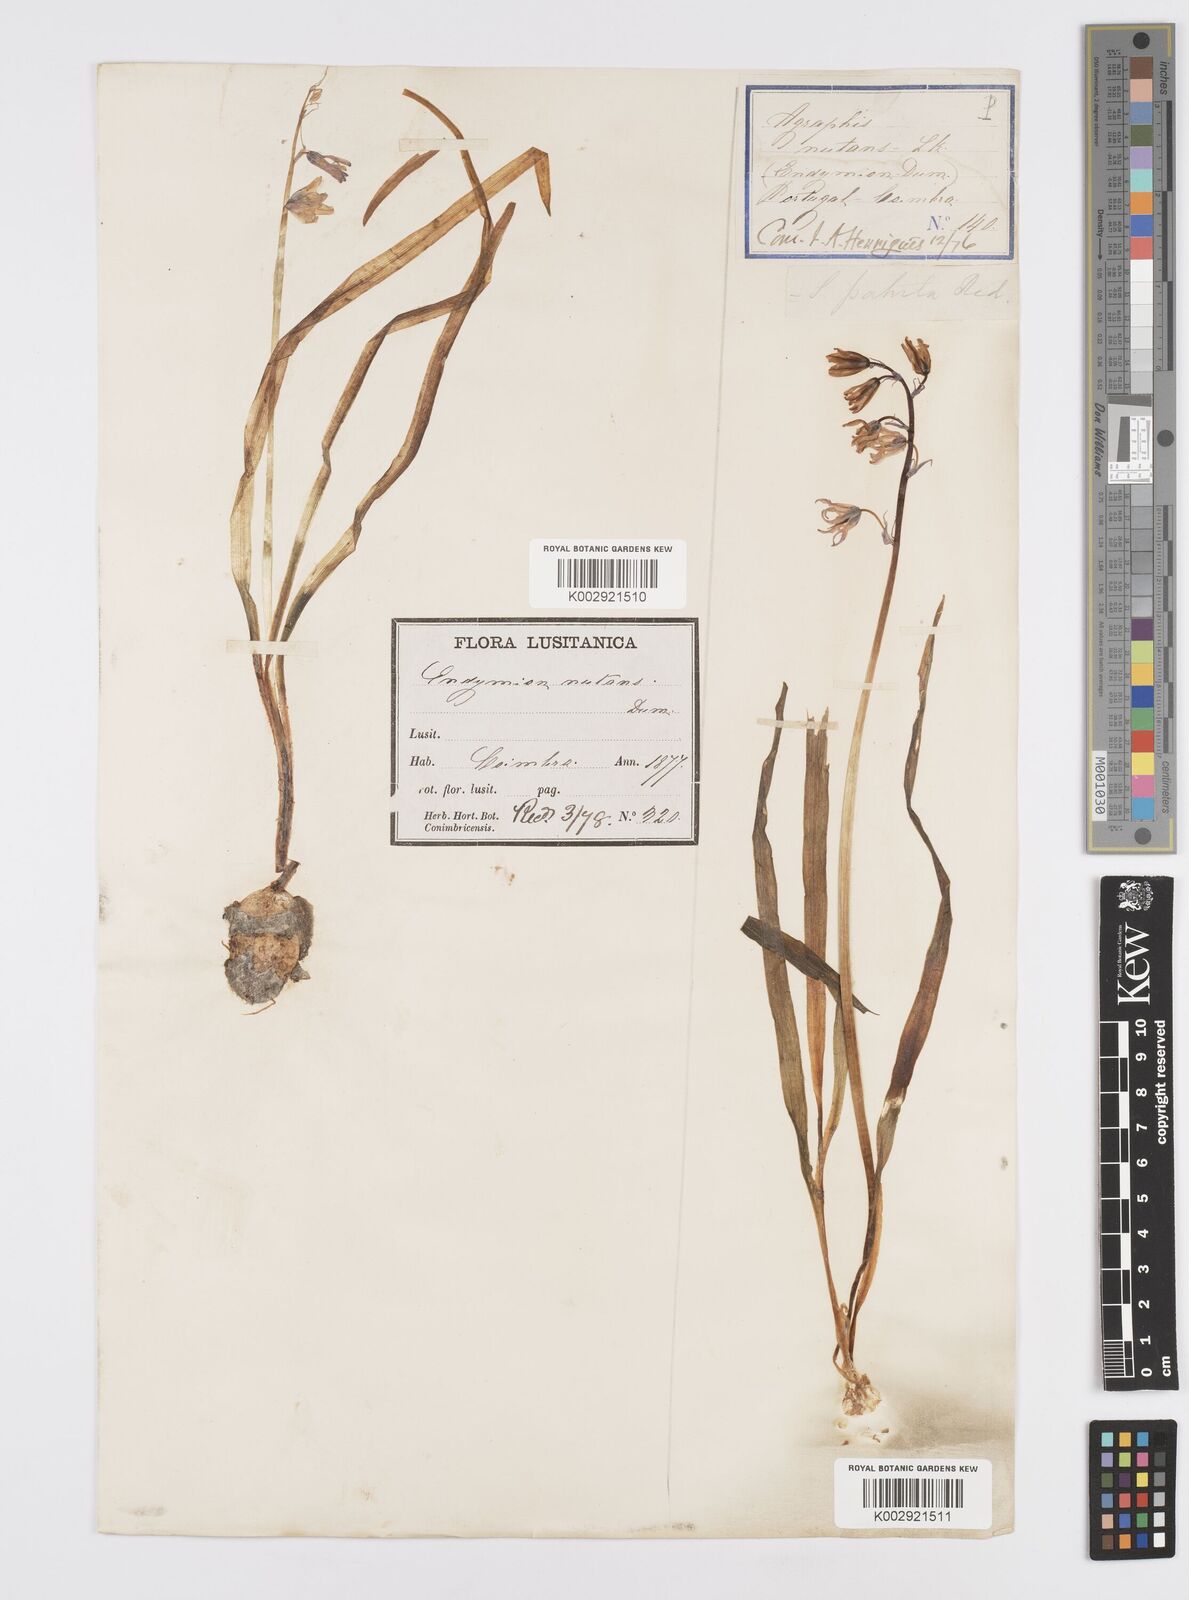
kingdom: Plantae
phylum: Tracheophyta
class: Liliopsida
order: Asparagales
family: Asparagaceae
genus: Hyacinthoides
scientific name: Hyacinthoides hispanica
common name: Spanish bluebell
